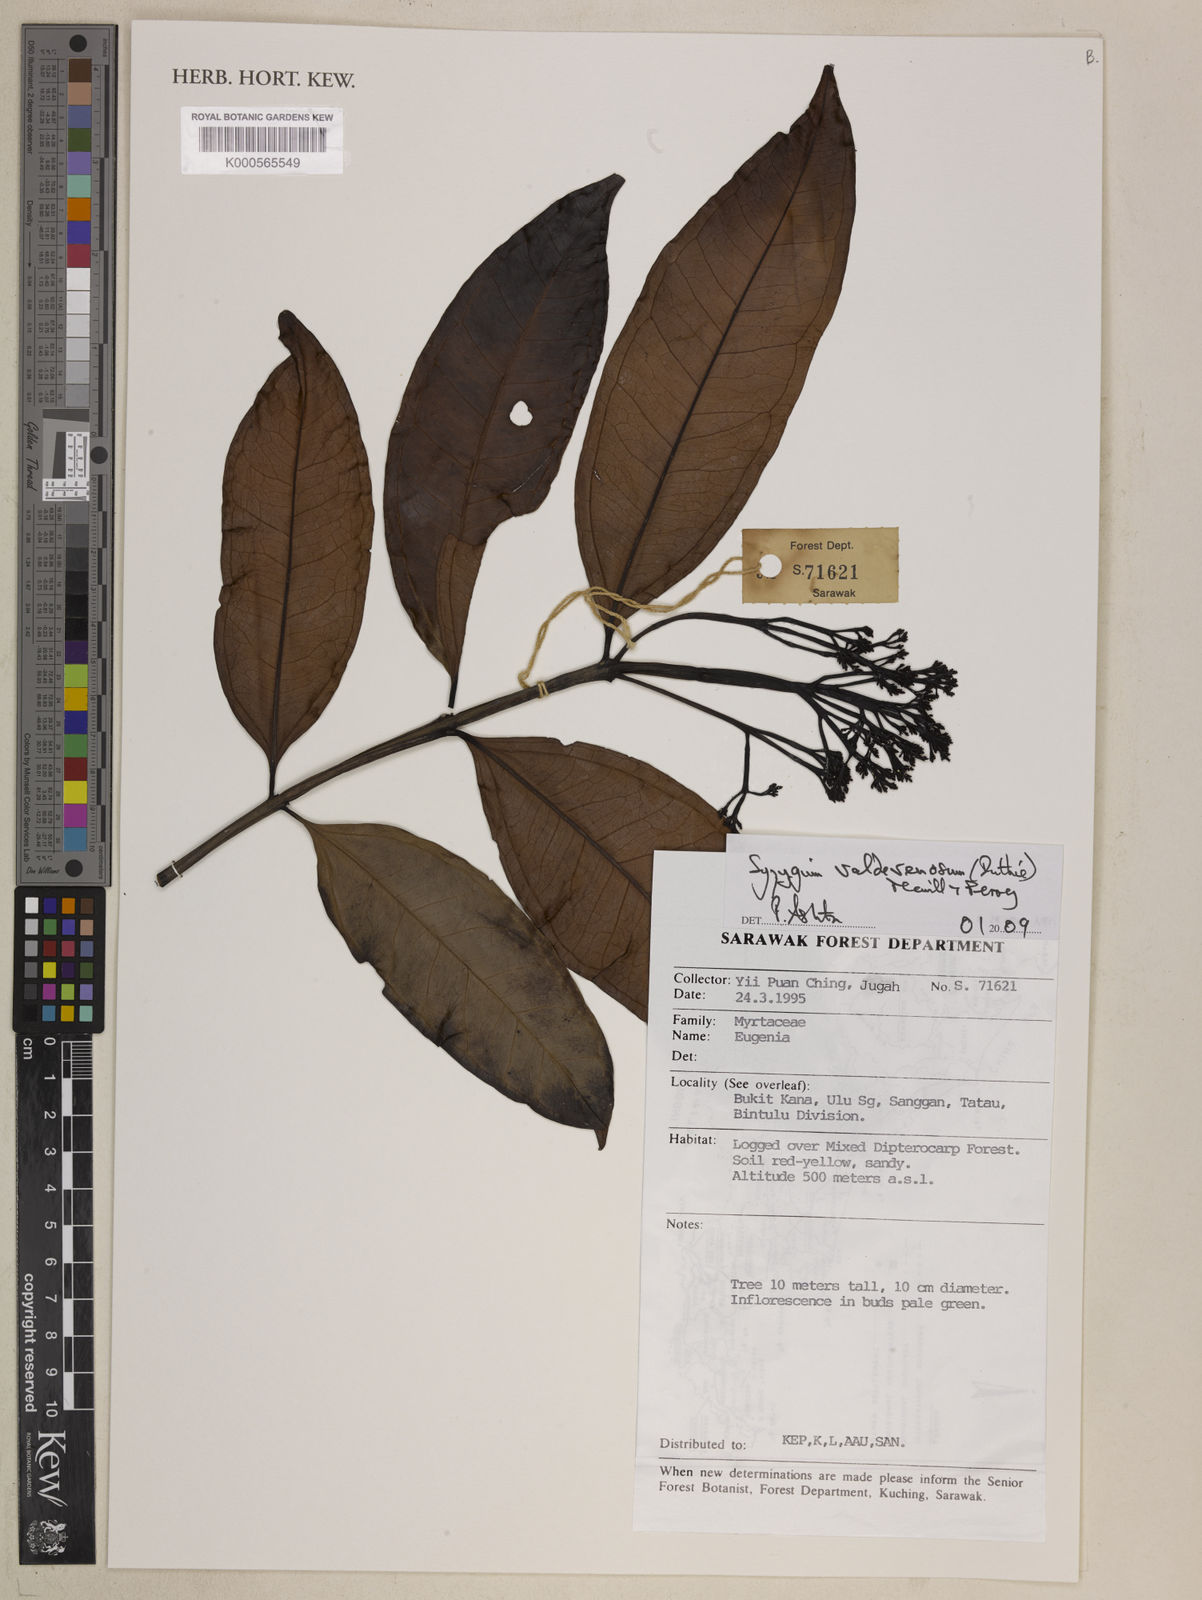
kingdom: Plantae
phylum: Tracheophyta
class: Magnoliopsida
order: Myrtales
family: Myrtaceae
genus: Syzygium
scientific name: Syzygium valdevenosum
